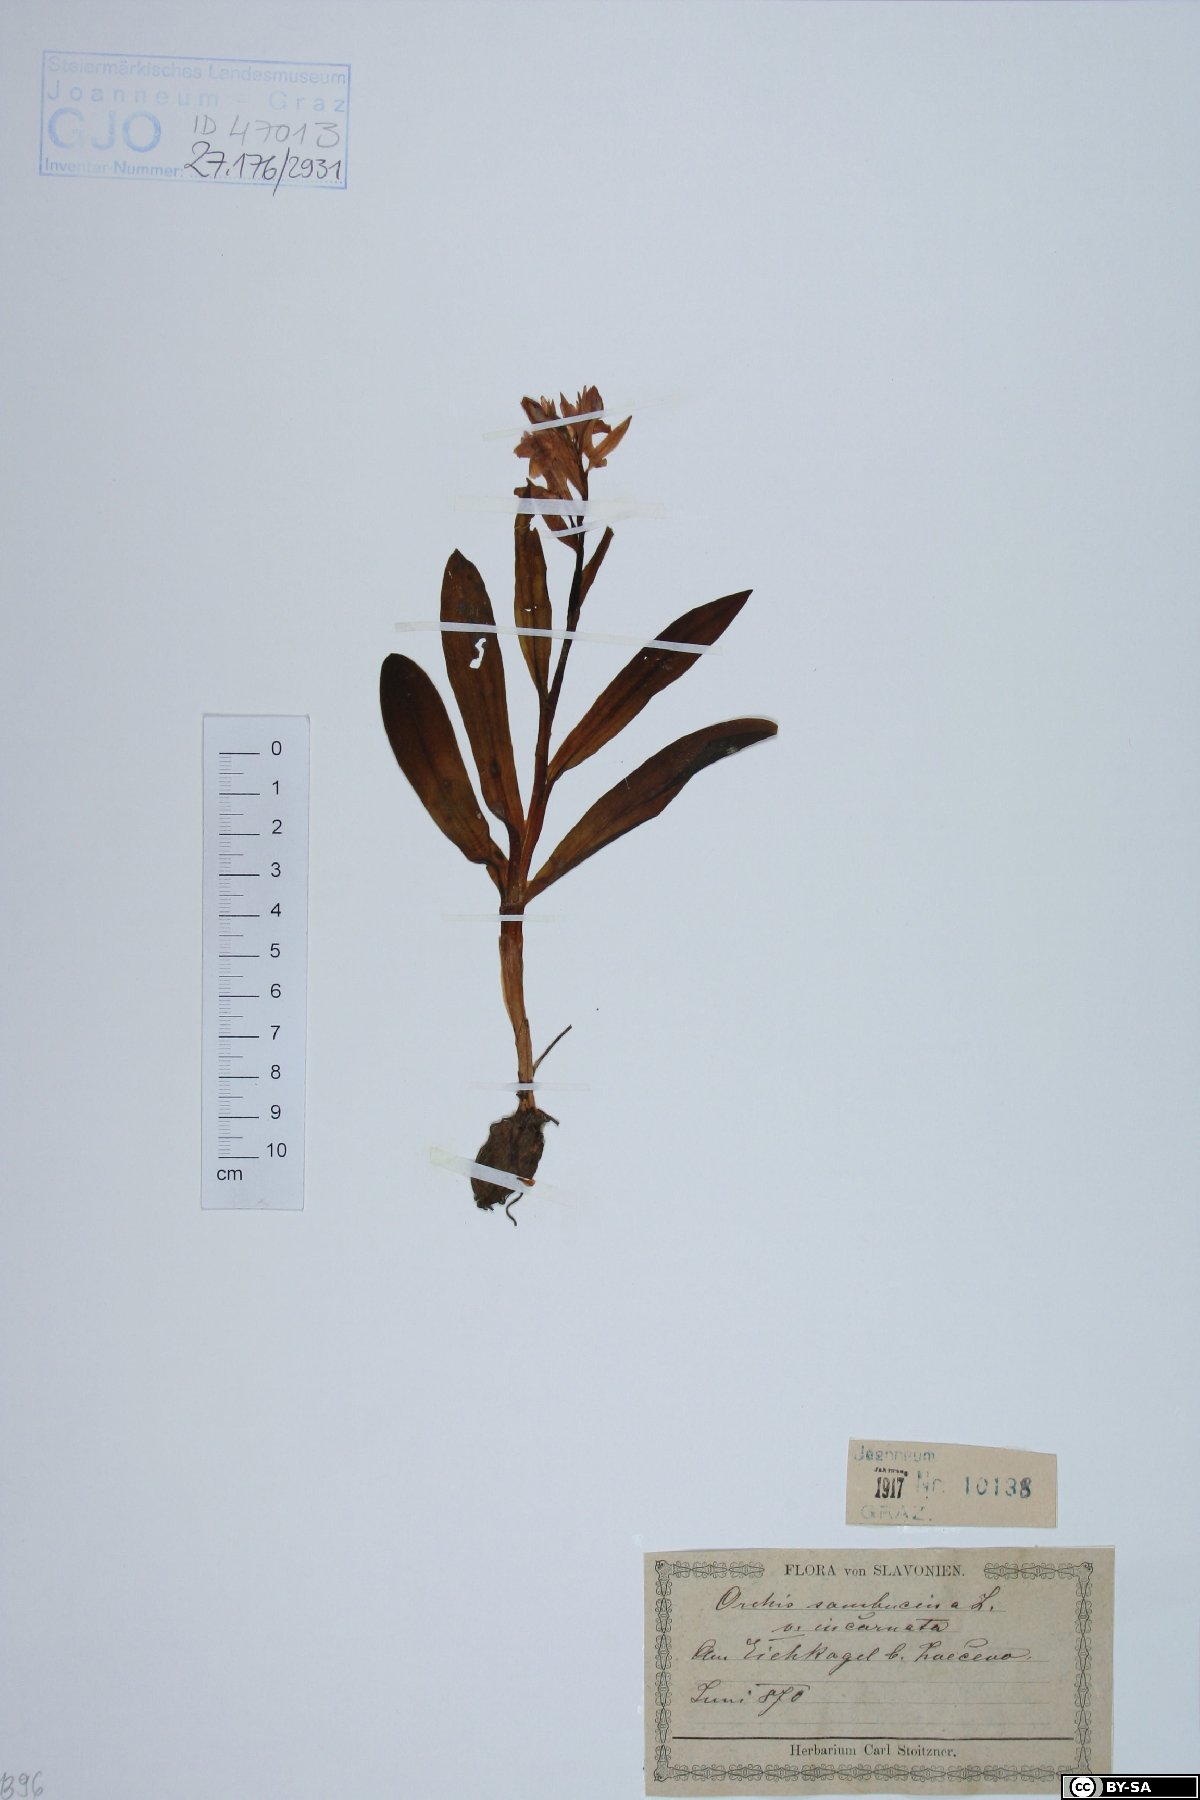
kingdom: Plantae
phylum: Tracheophyta
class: Liliopsida
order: Asparagales
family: Orchidaceae
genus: Dactylorhiza
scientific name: Dactylorhiza sambucina
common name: Elder-flowered orchid
